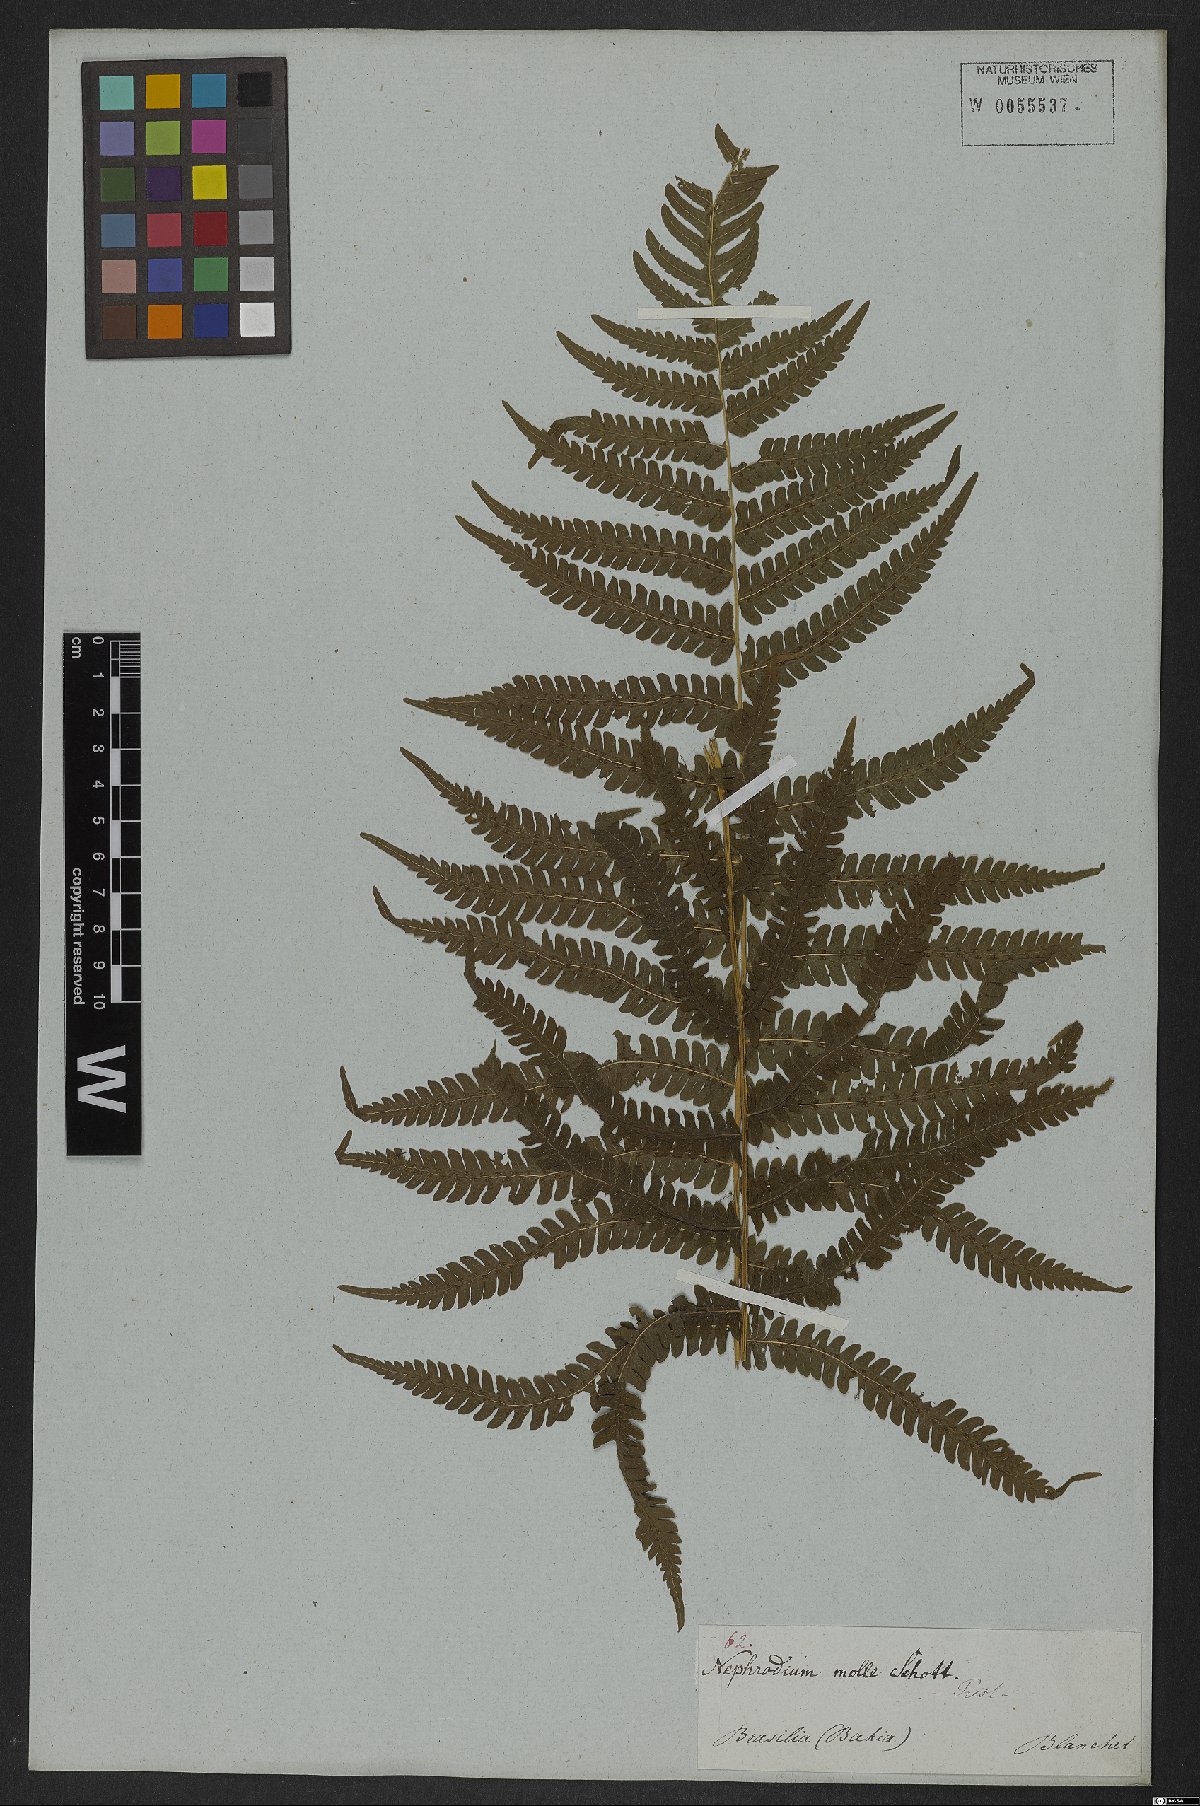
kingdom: Plantae
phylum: Tracheophyta
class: Polypodiopsida
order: Polypodiales
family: Thelypteridaceae
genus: Christella
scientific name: Christella parasitica
